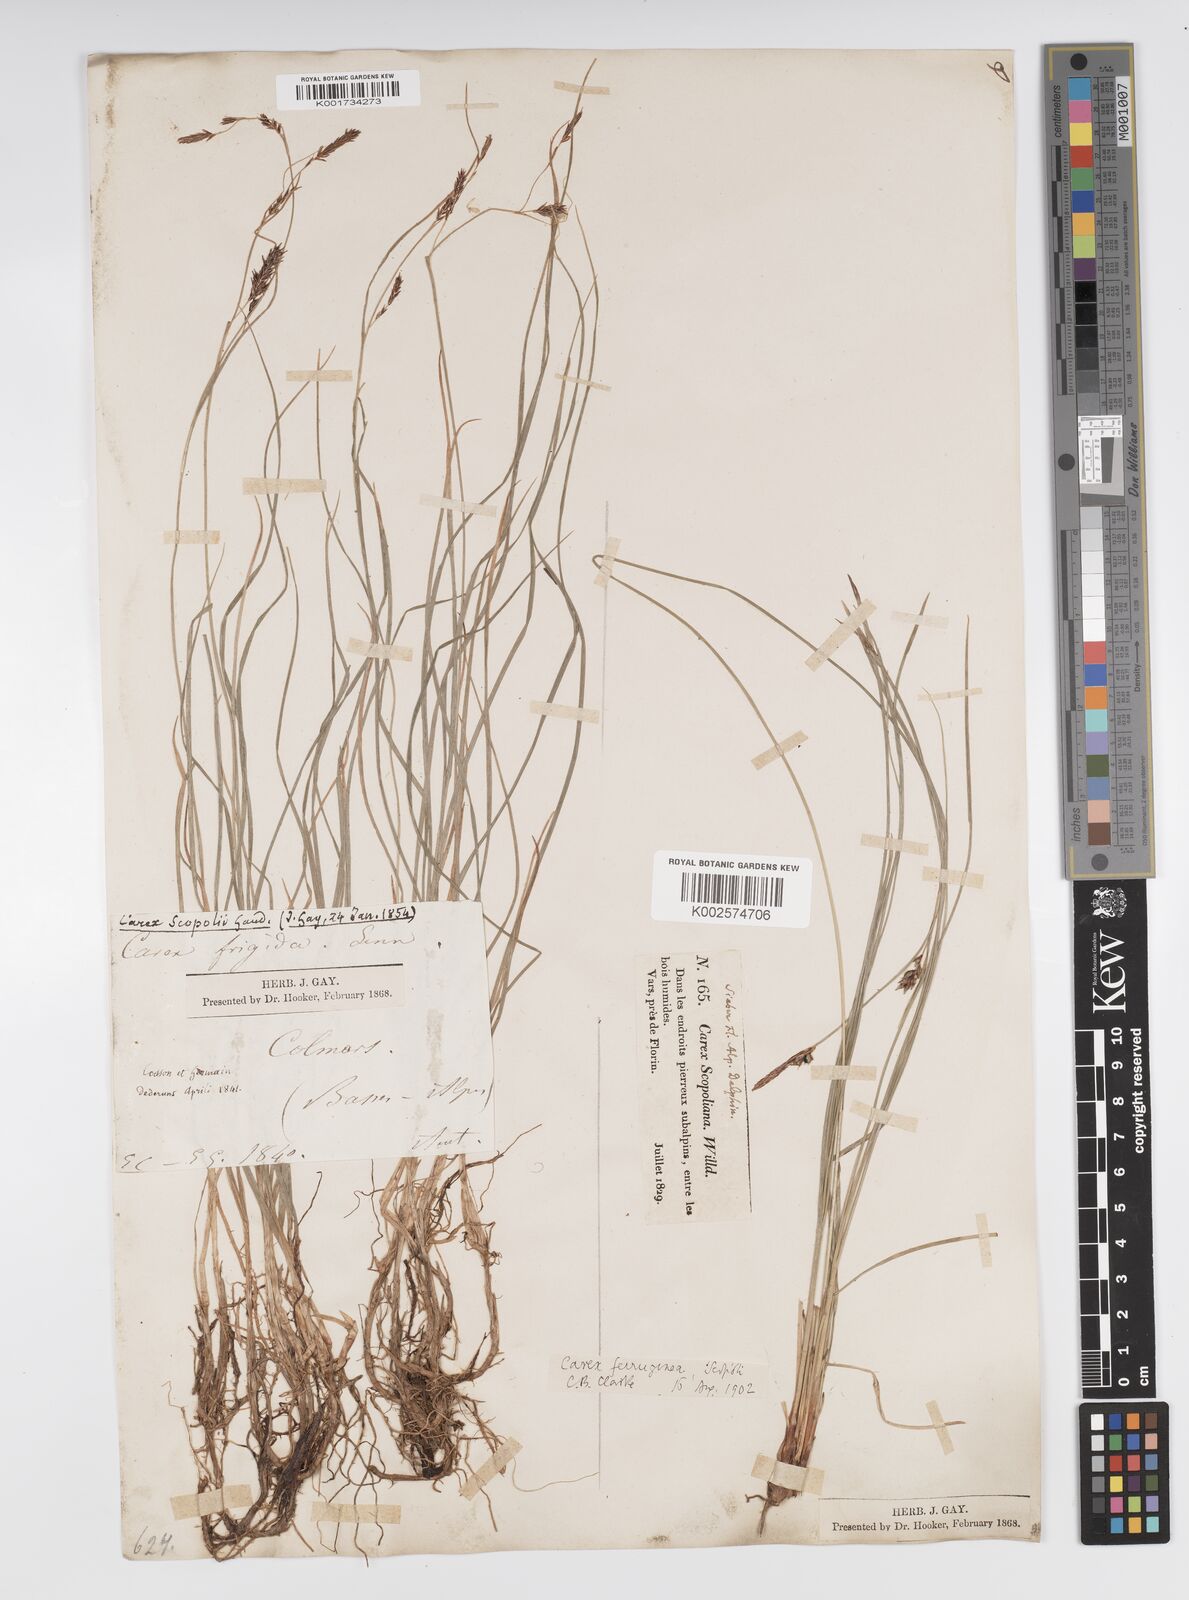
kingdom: Plantae
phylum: Tracheophyta
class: Liliopsida
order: Poales
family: Cyperaceae
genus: Carex
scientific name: Carex ferruginea
